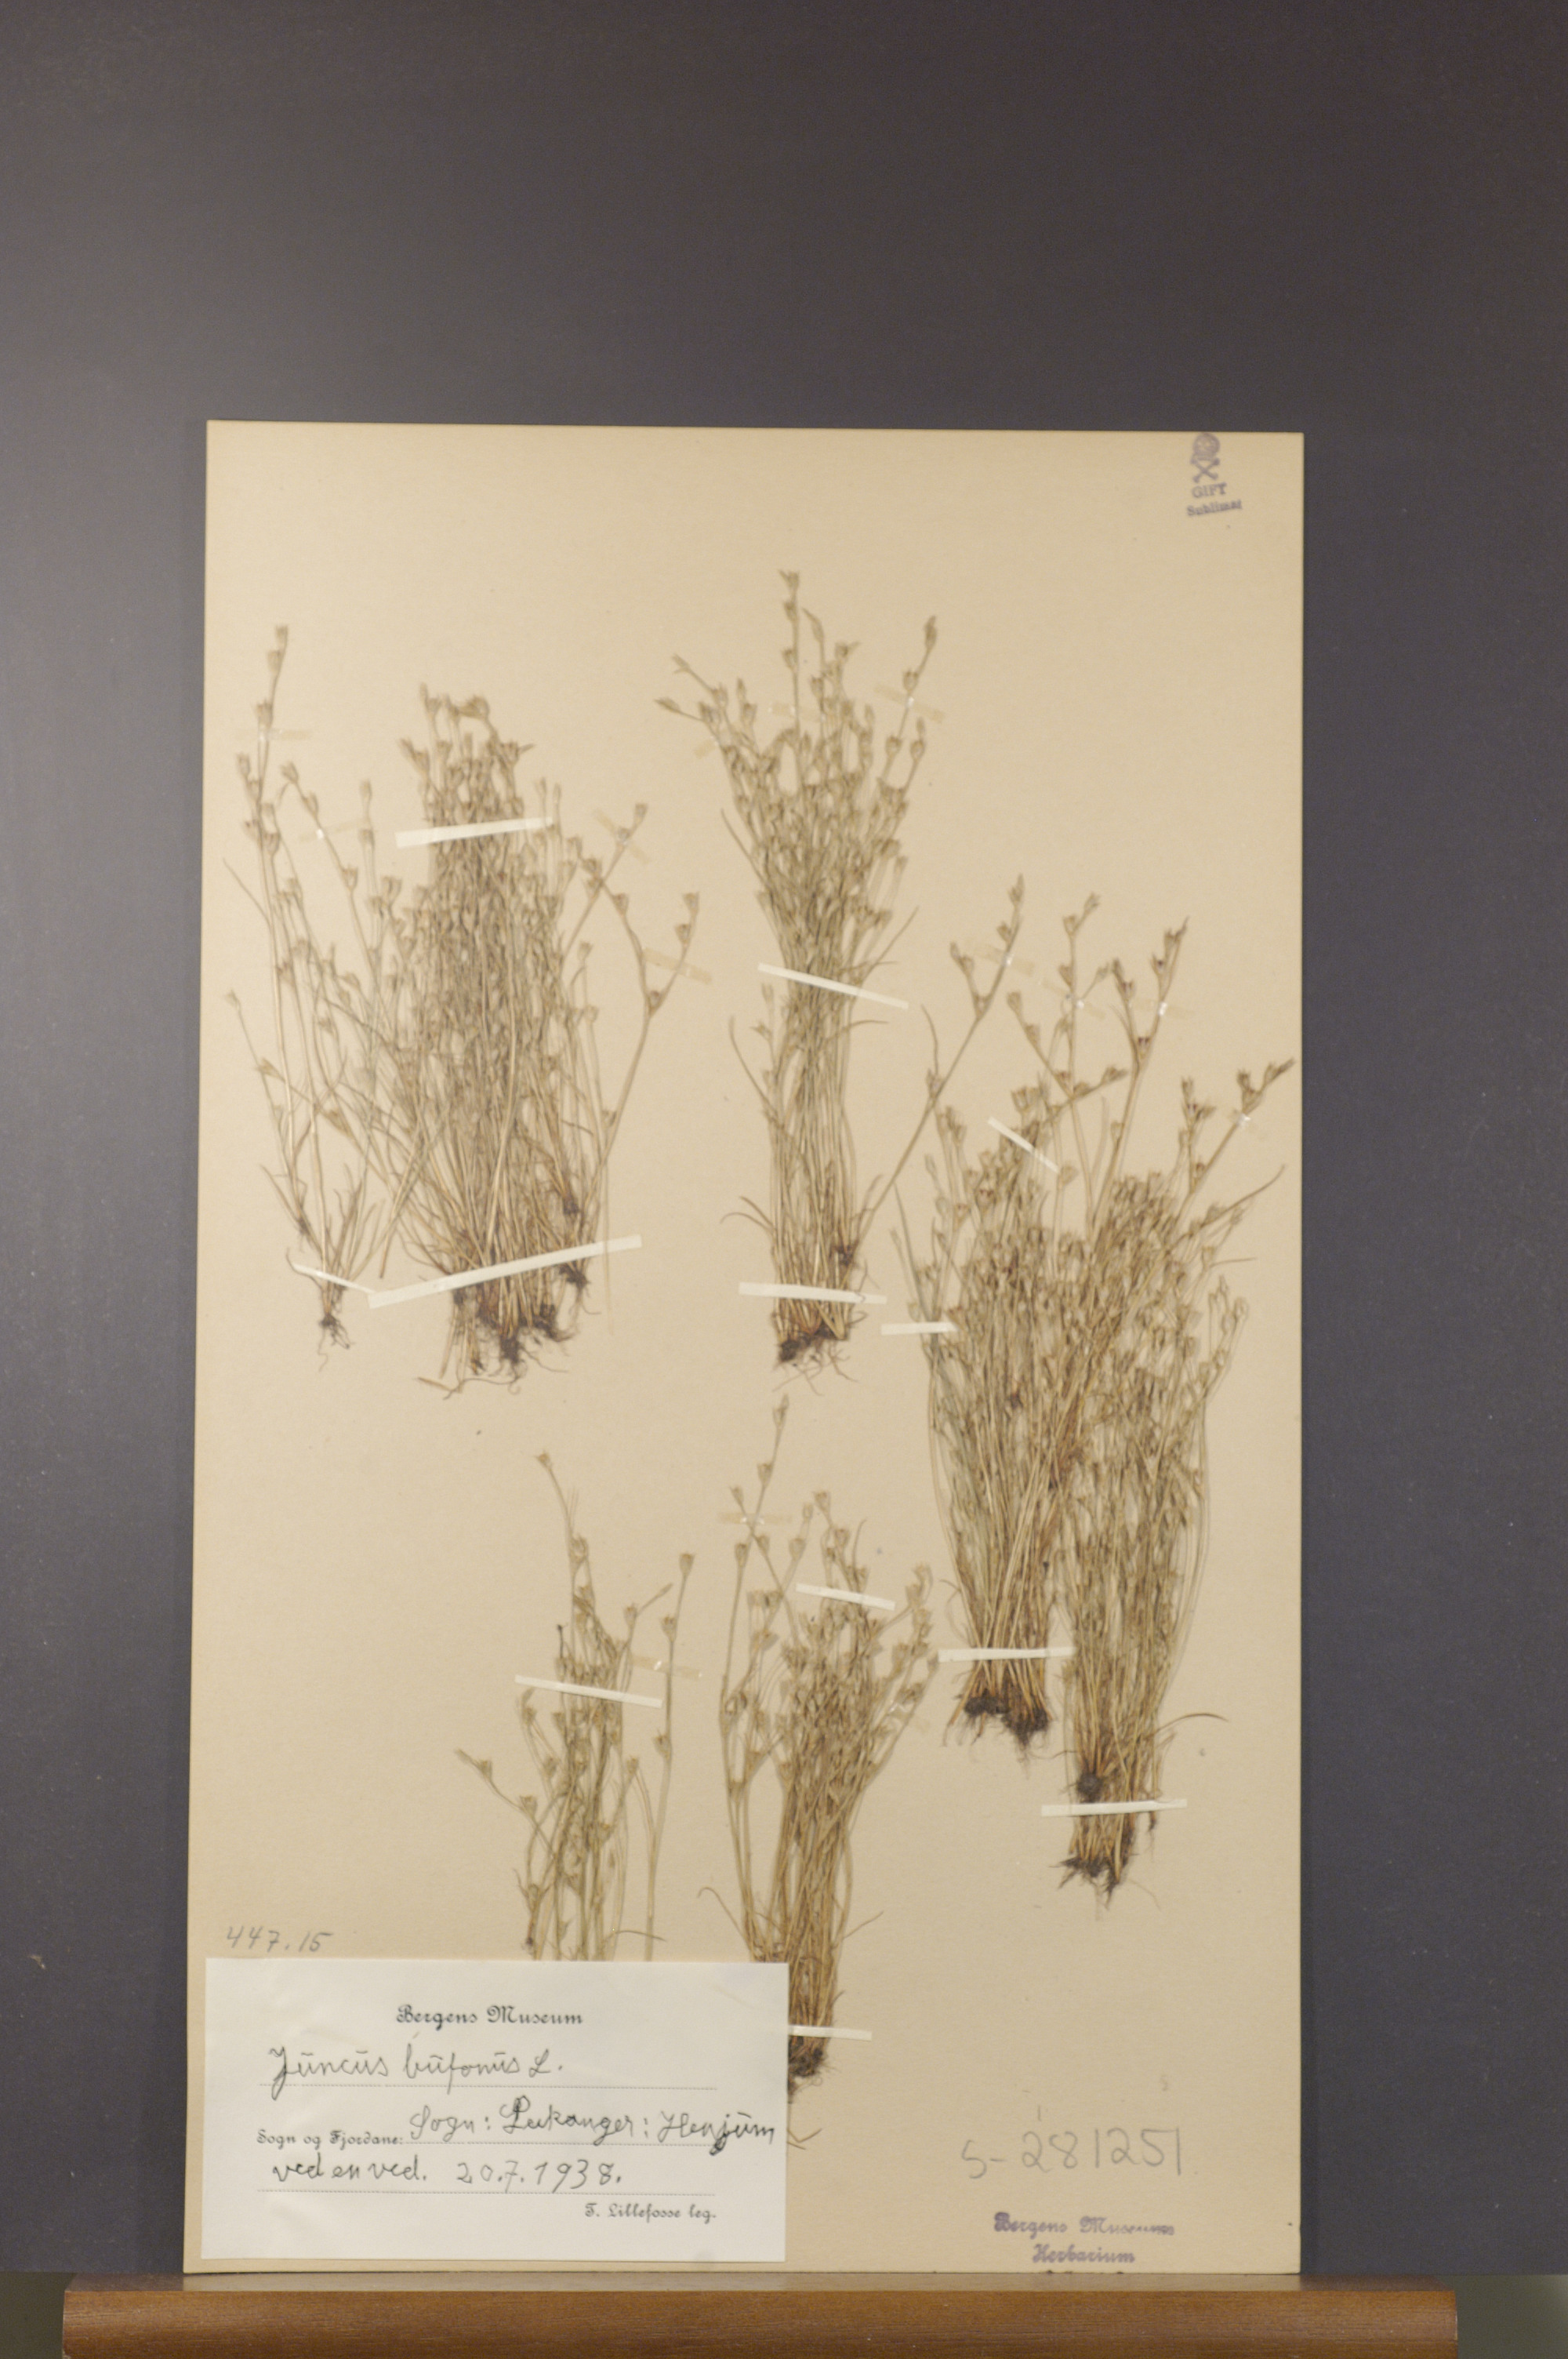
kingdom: Plantae
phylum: Tracheophyta
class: Liliopsida
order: Poales
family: Juncaceae
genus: Juncus
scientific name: Juncus bufonius
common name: Toad rush
